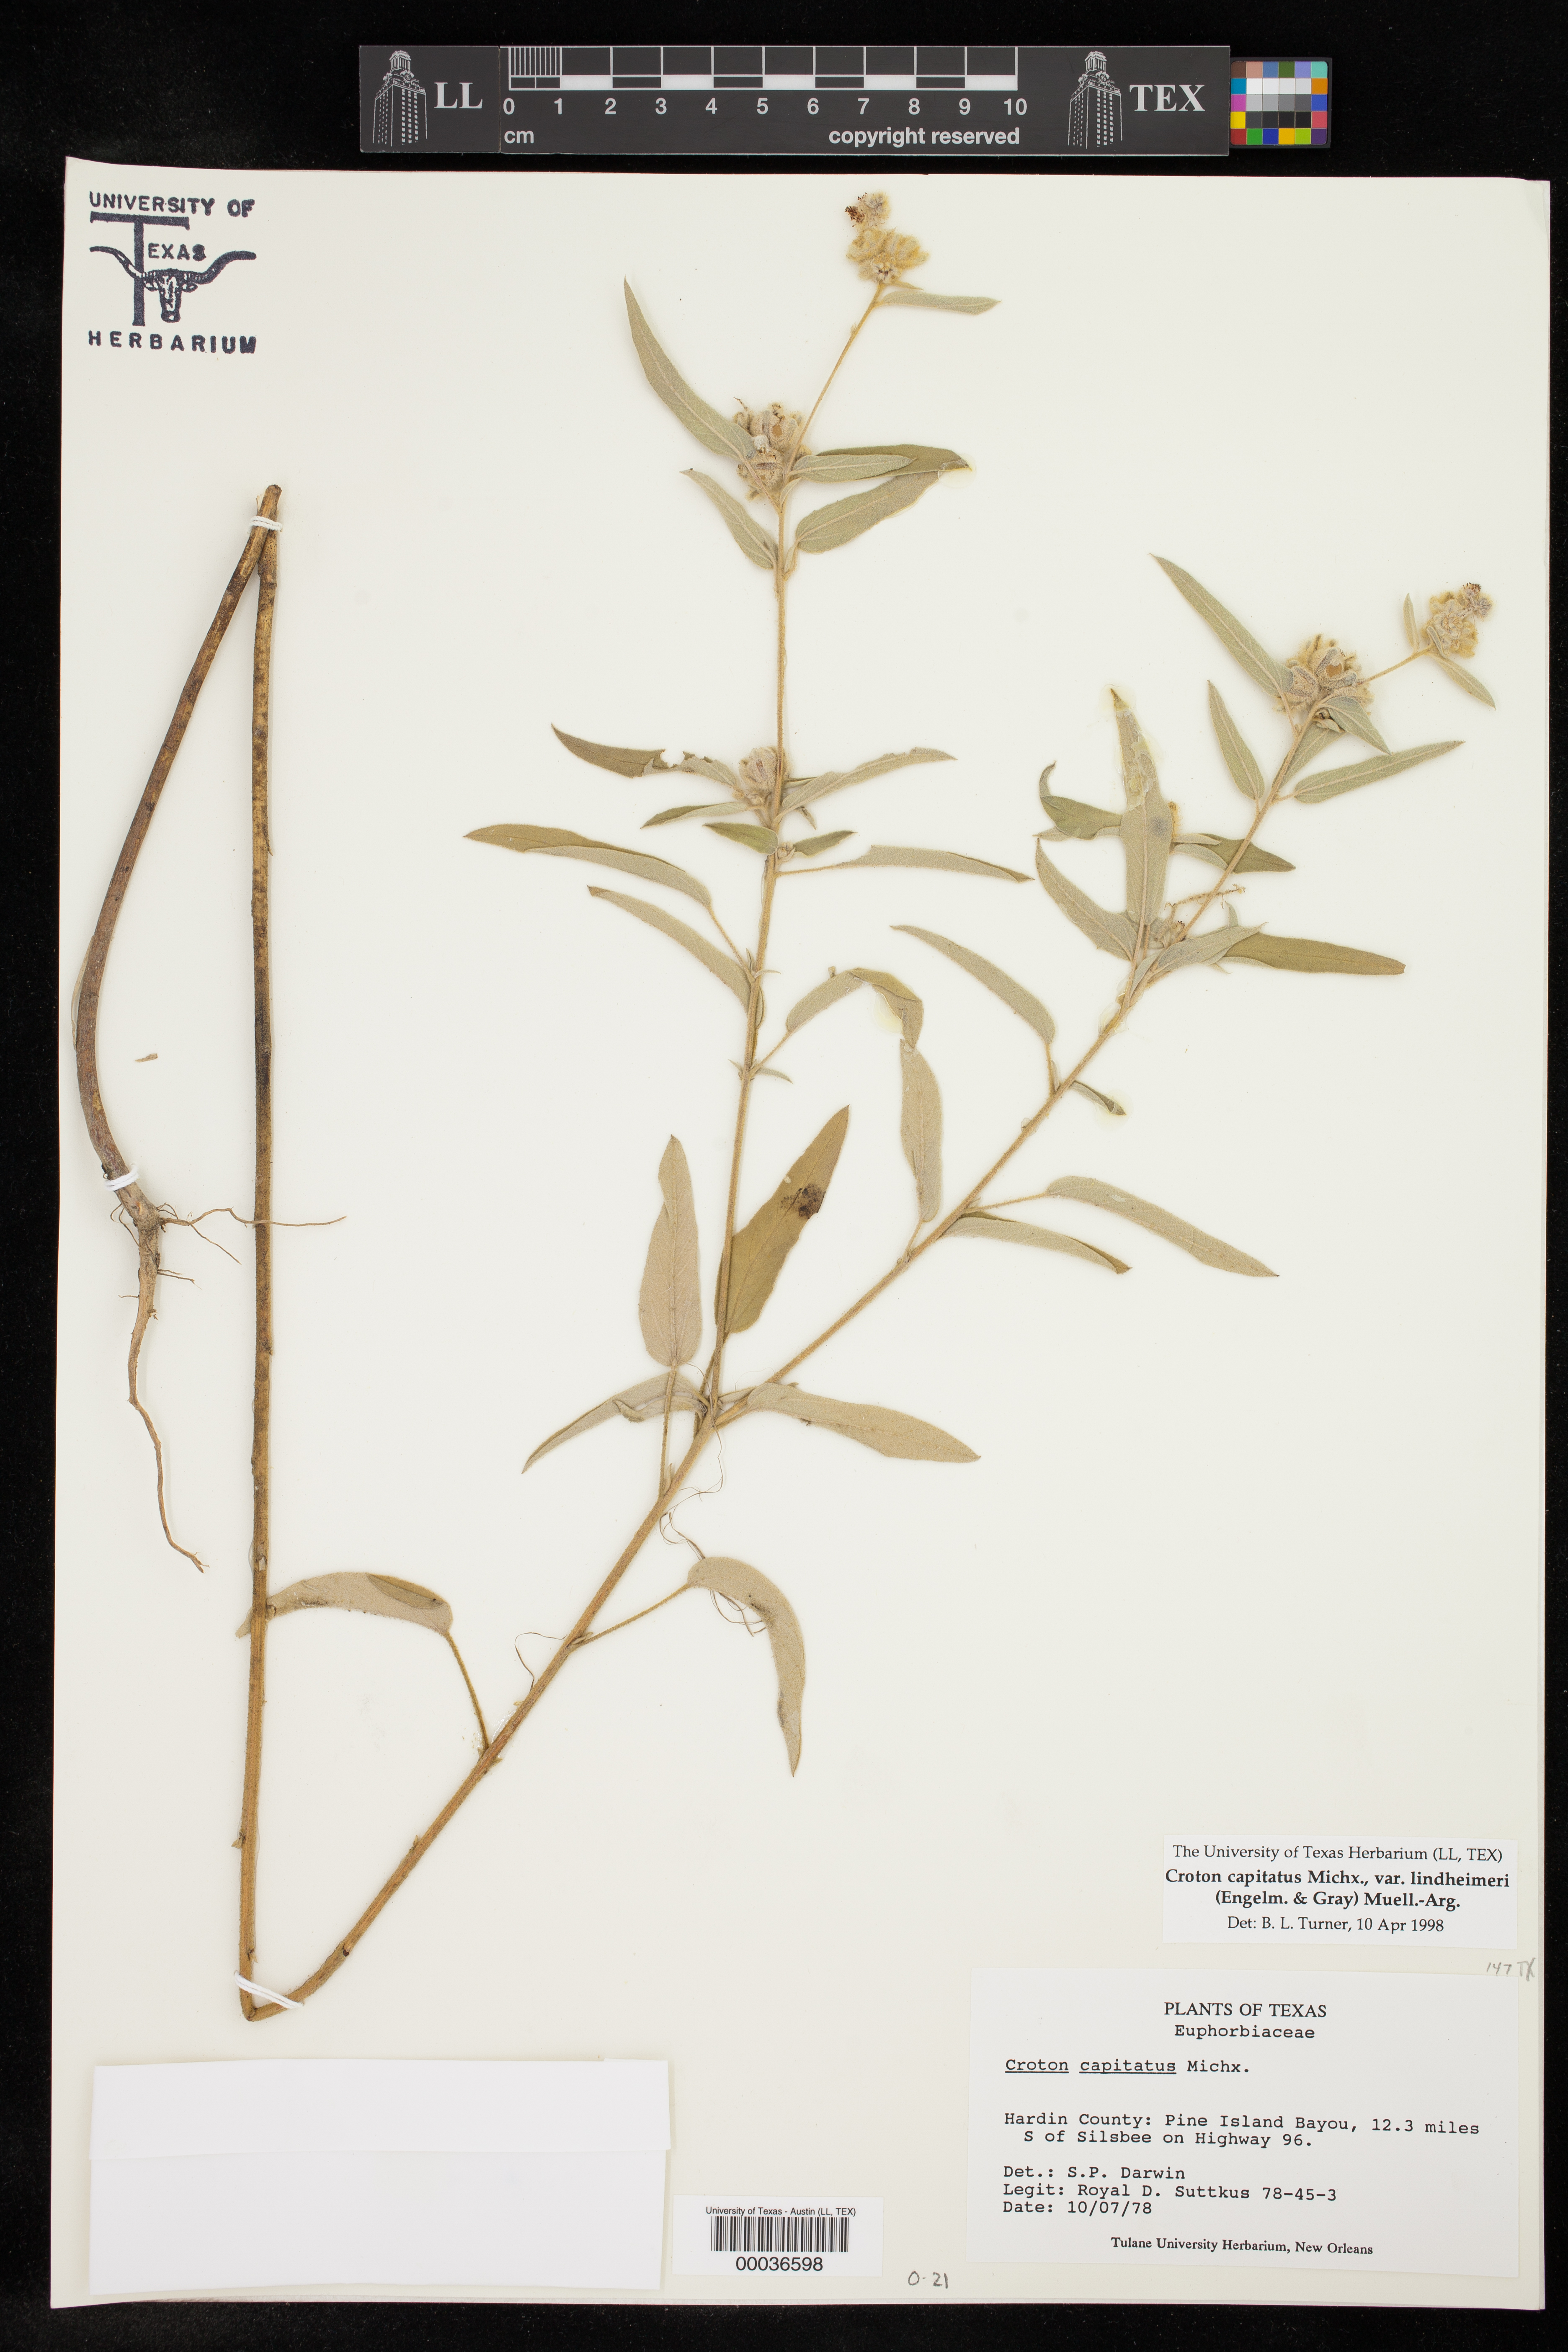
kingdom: Plantae
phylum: Tracheophyta
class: Magnoliopsida
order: Malpighiales
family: Euphorbiaceae
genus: Croton
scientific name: Croton lindheimeri
